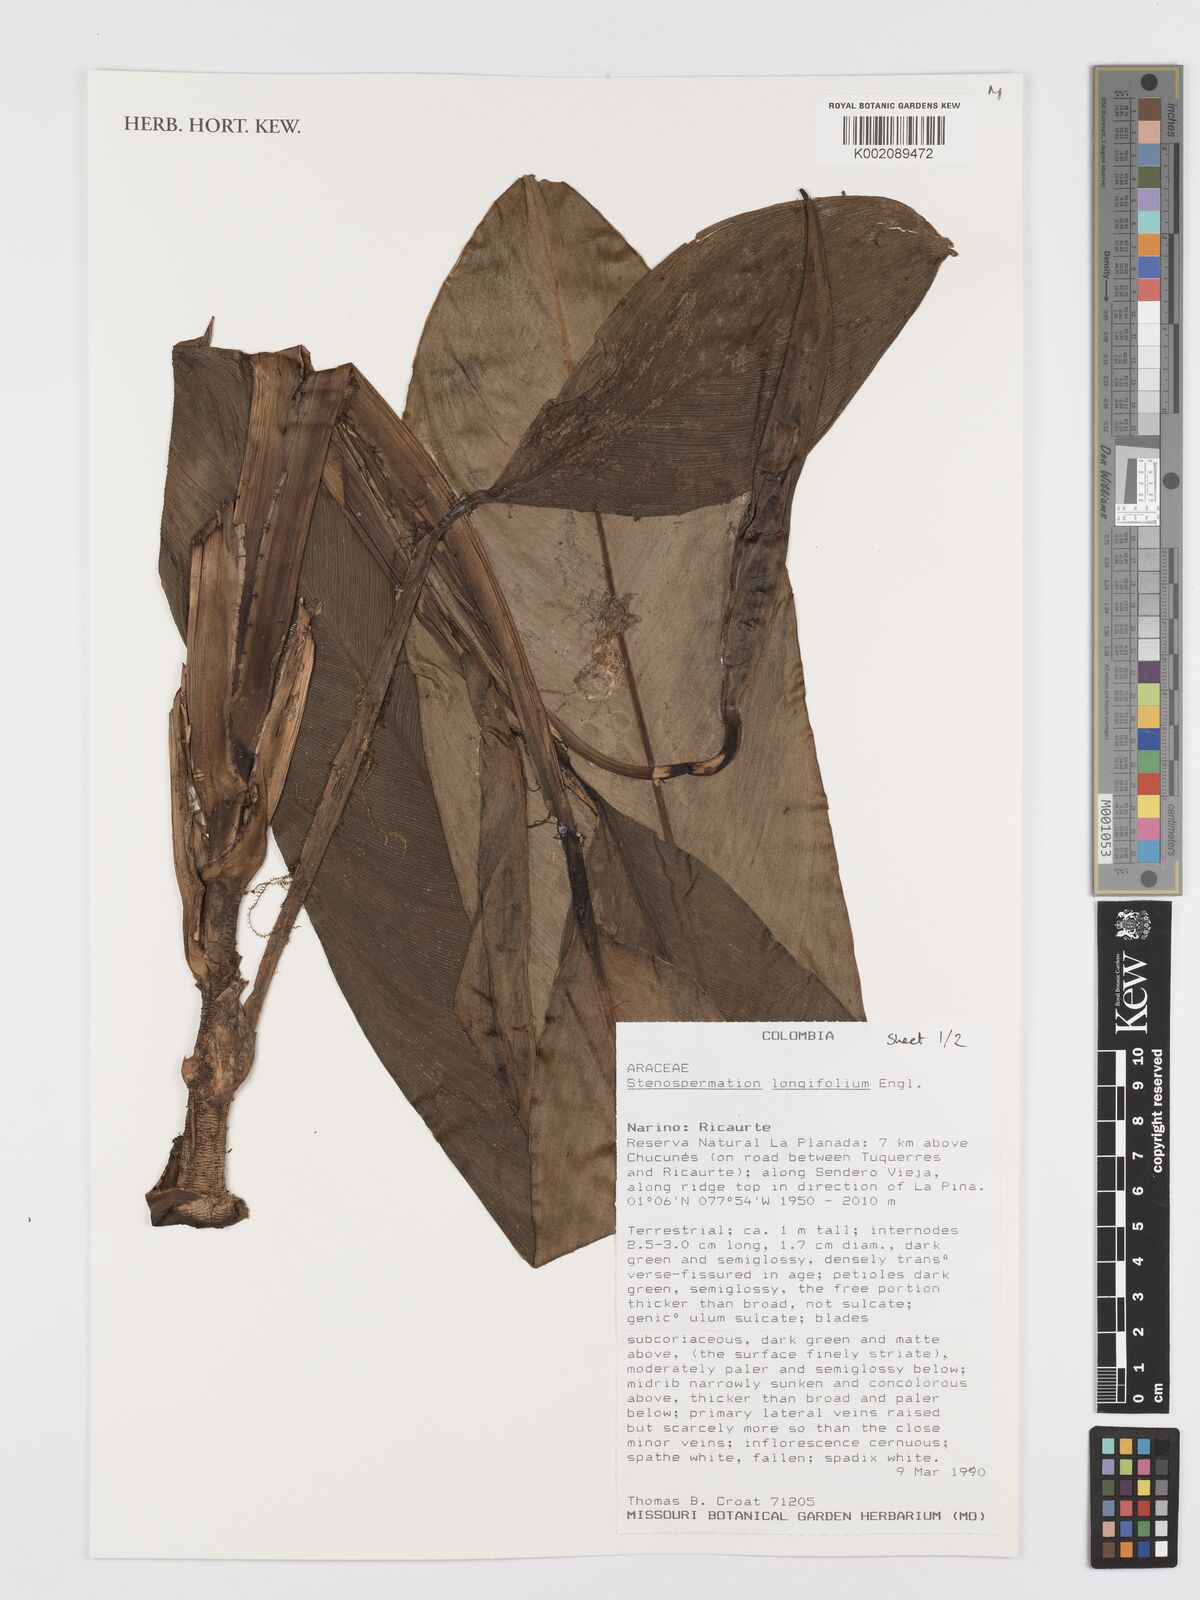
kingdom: Plantae
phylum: Tracheophyta
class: Liliopsida
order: Alismatales
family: Araceae
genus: Stenospermation
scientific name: Stenospermation longifolium
